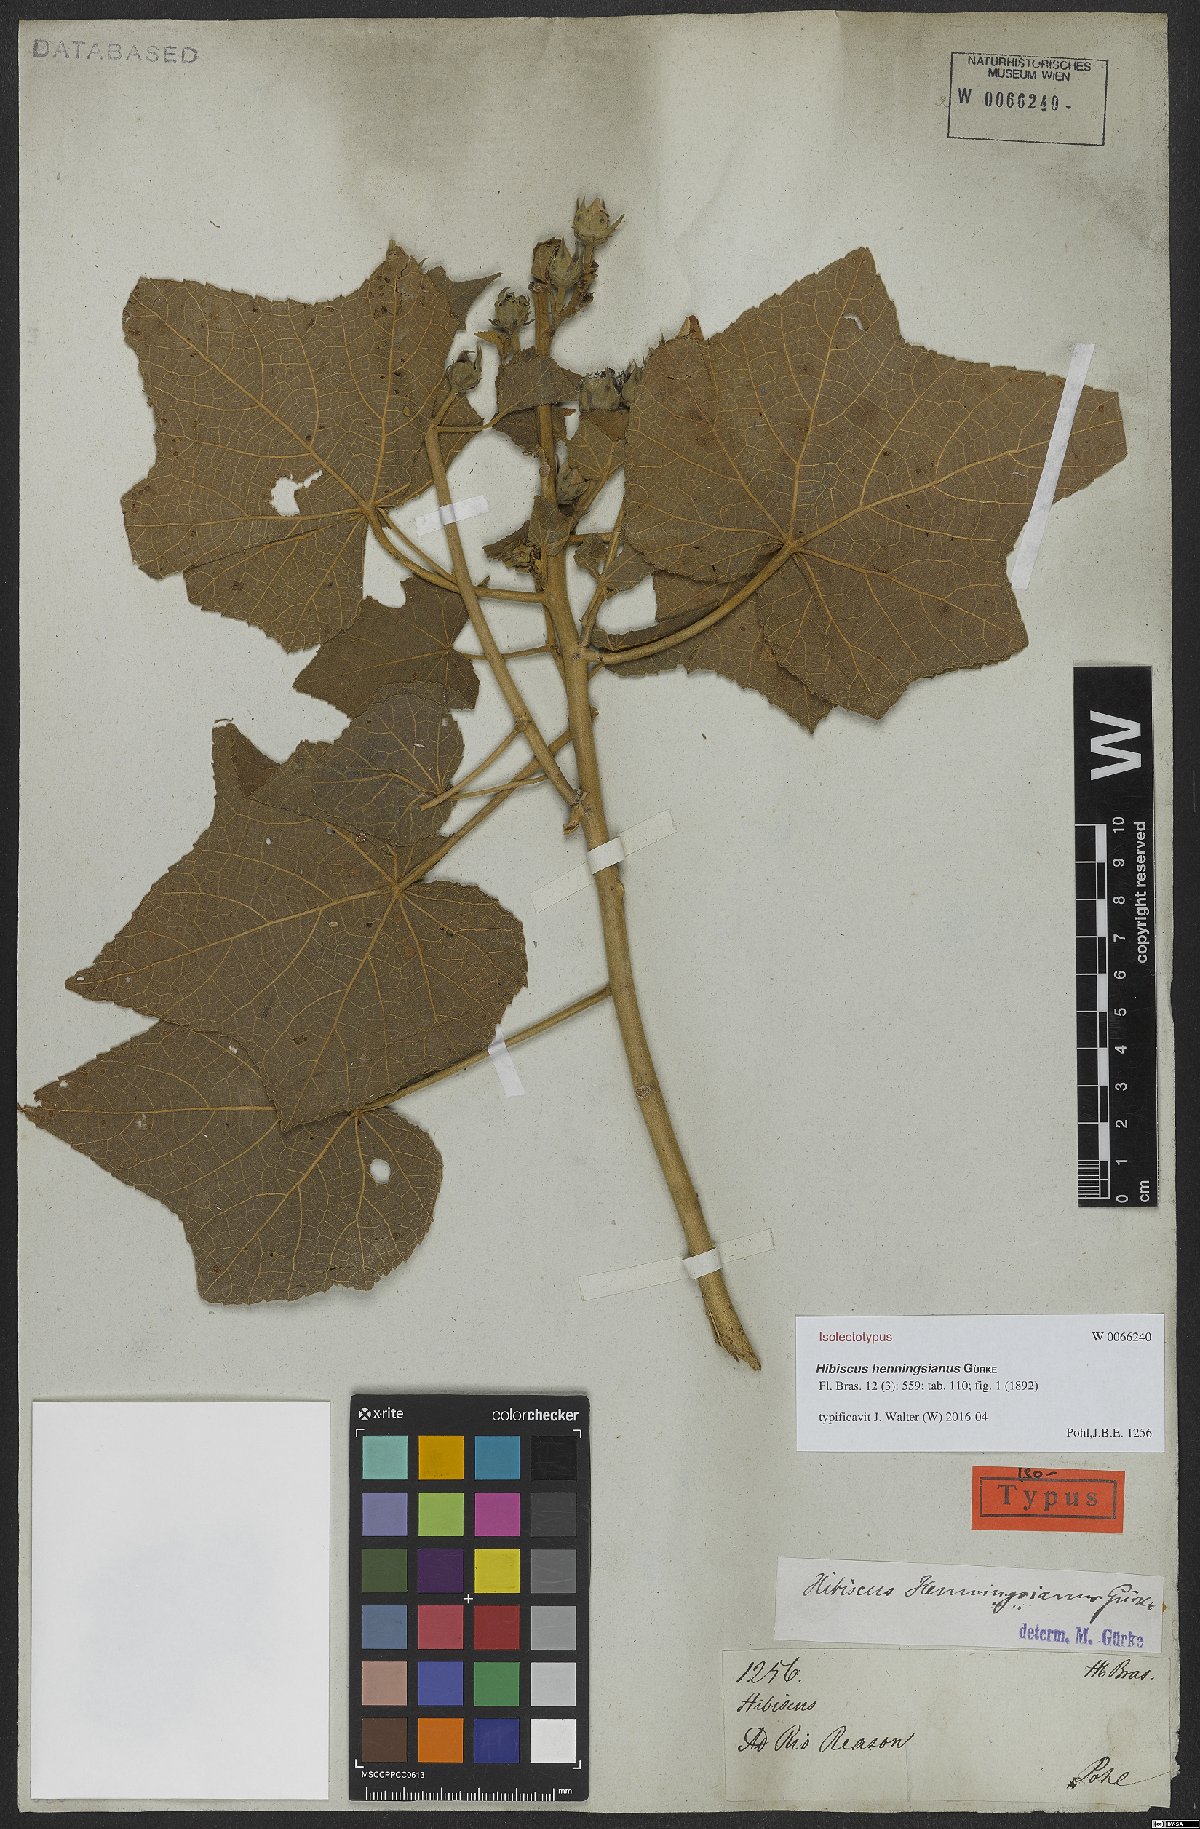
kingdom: Plantae
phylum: Tracheophyta
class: Magnoliopsida
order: Malvales
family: Malvaceae
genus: Hibiscus
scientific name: Hibiscus henningsianus
